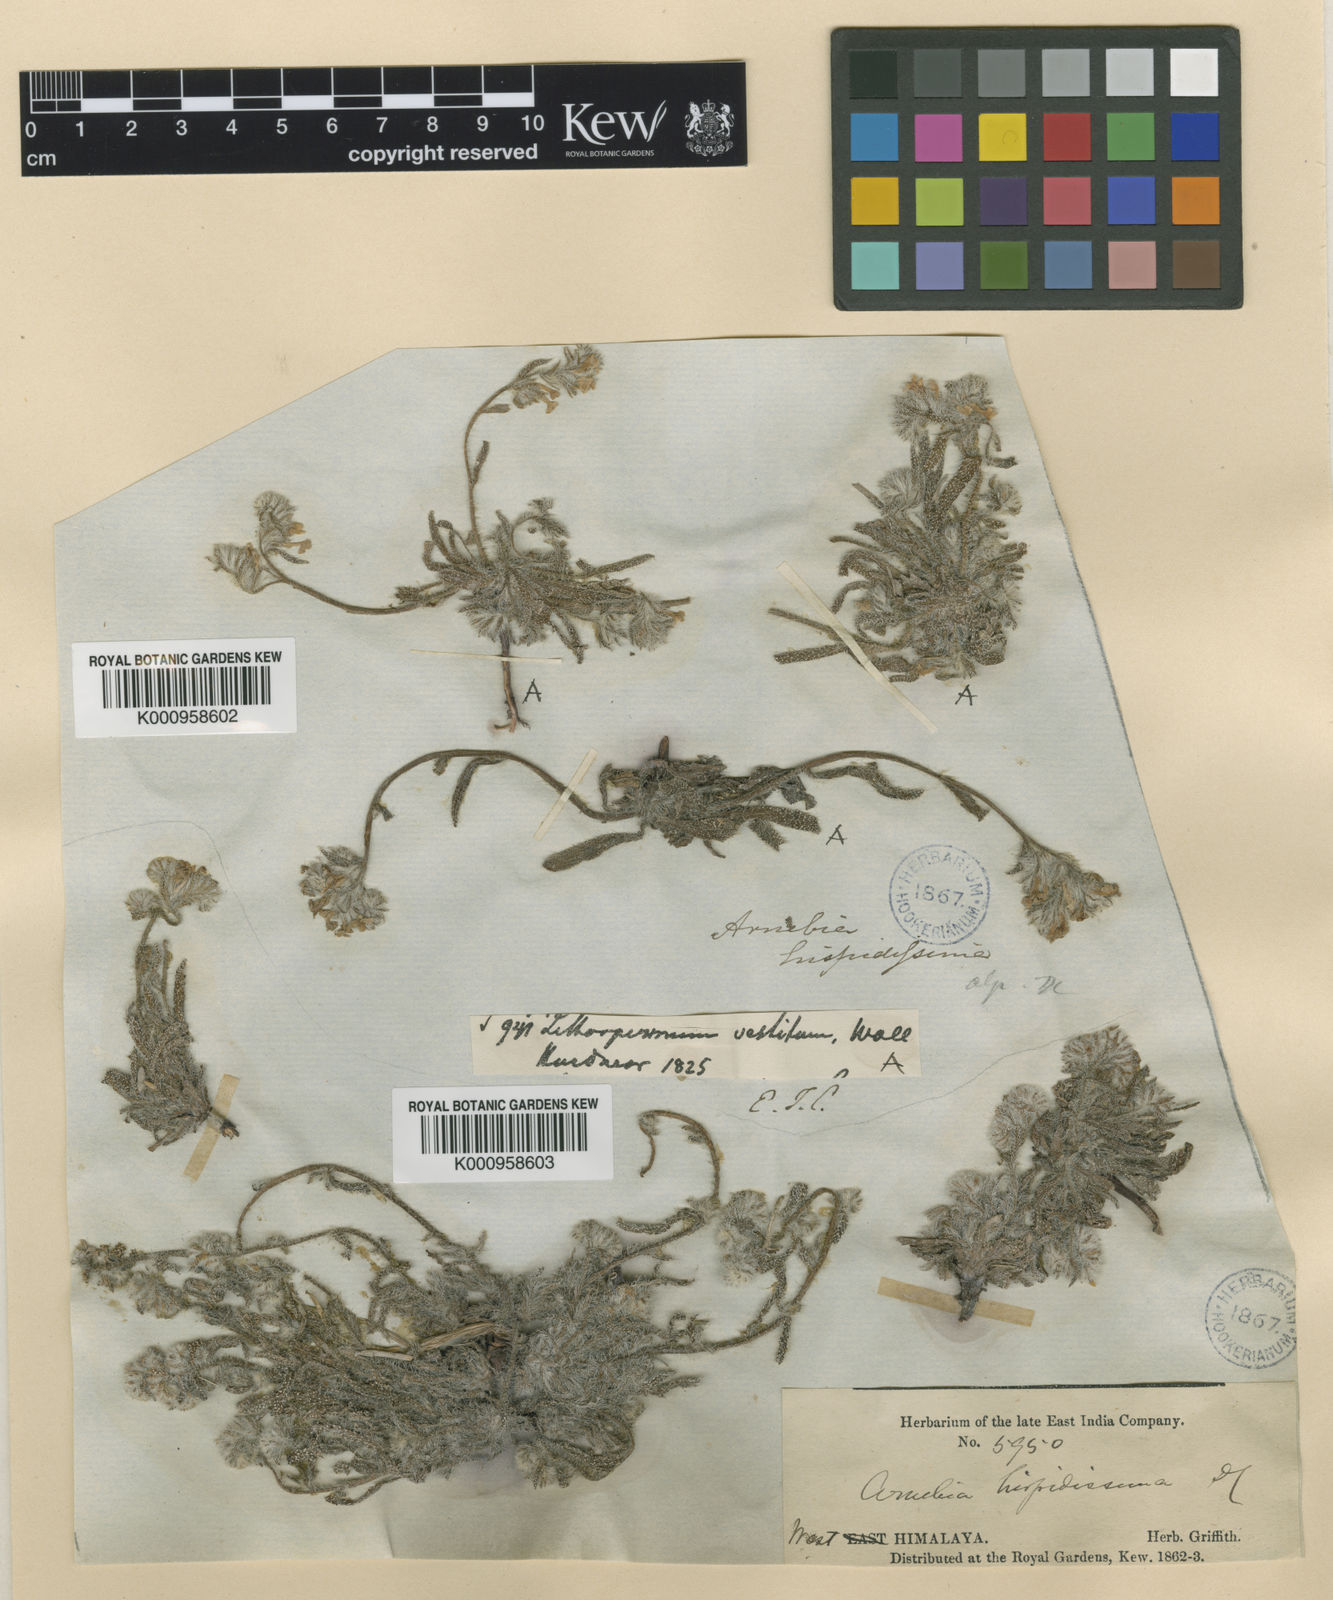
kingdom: Plantae
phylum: Tracheophyta
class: Magnoliopsida
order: Boraginales
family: Boraginaceae
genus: Arnebia
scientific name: Arnebia hispidissima
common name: Arabian-primrose
